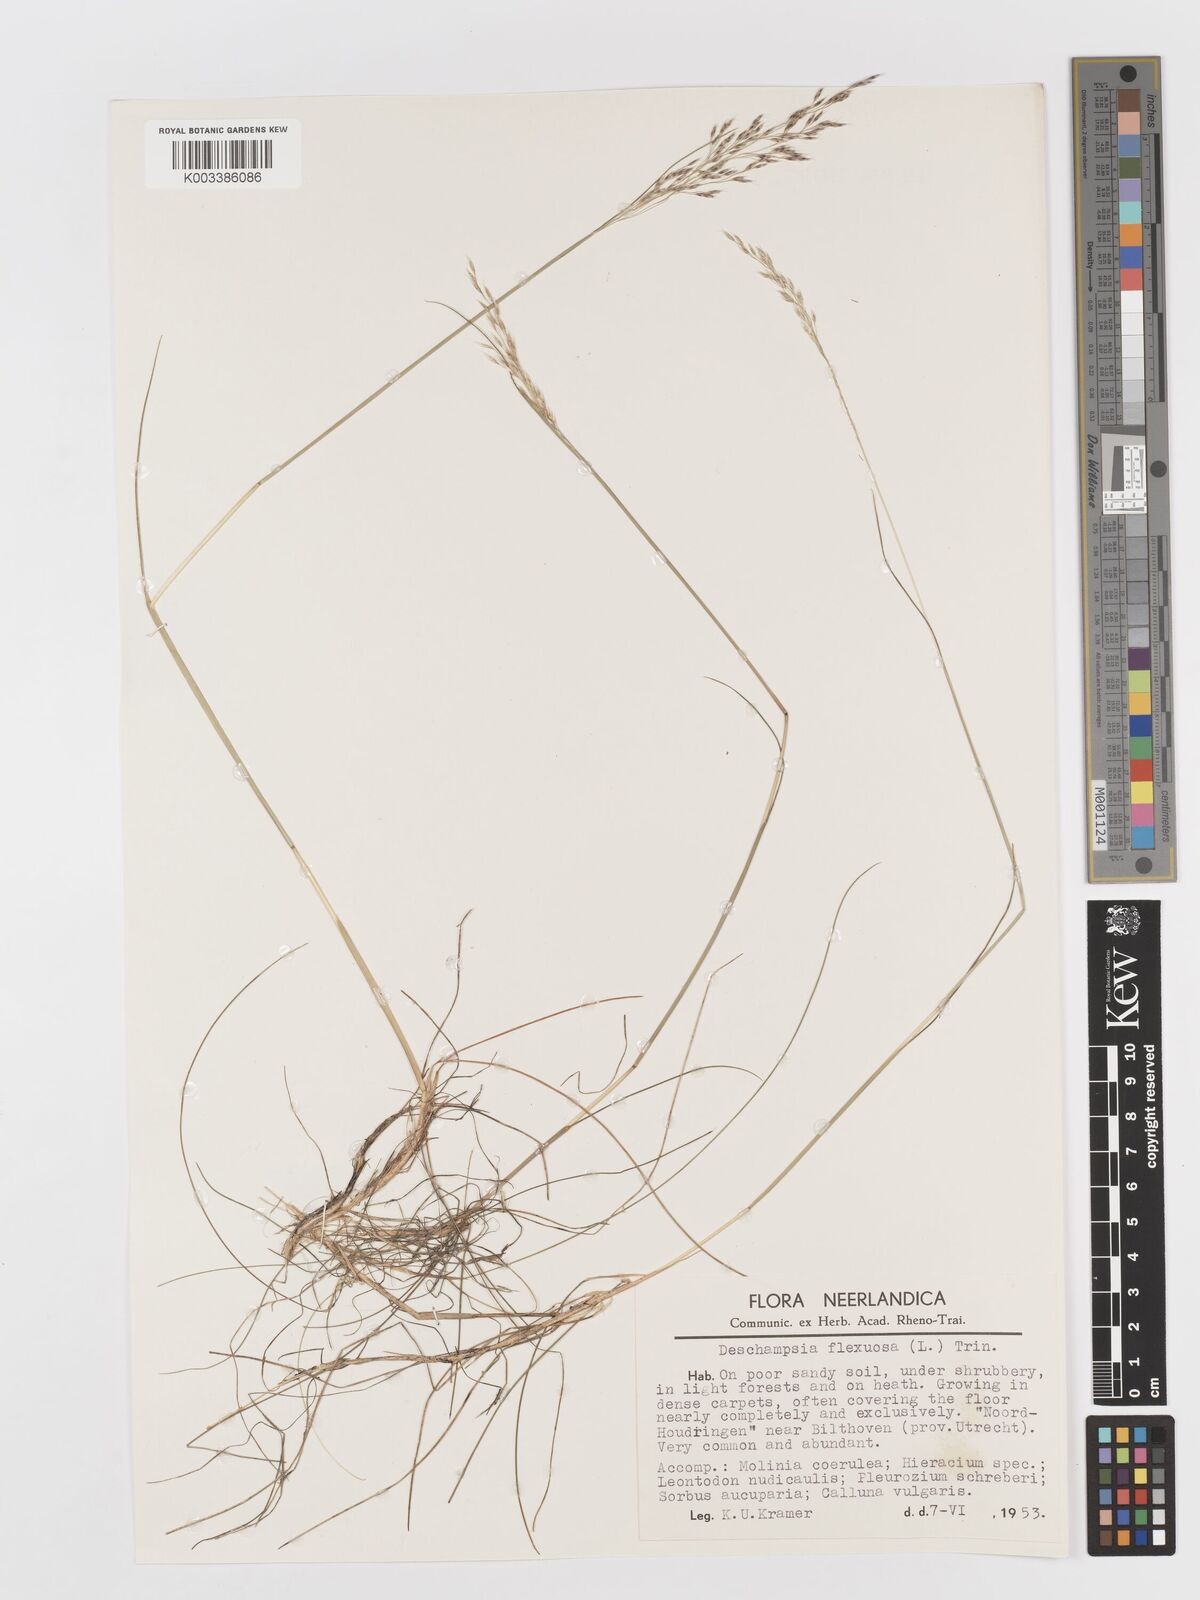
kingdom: Plantae
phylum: Tracheophyta
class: Liliopsida
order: Poales
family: Poaceae
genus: Avenella
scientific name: Avenella flexuosa
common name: Wavy hairgrass
